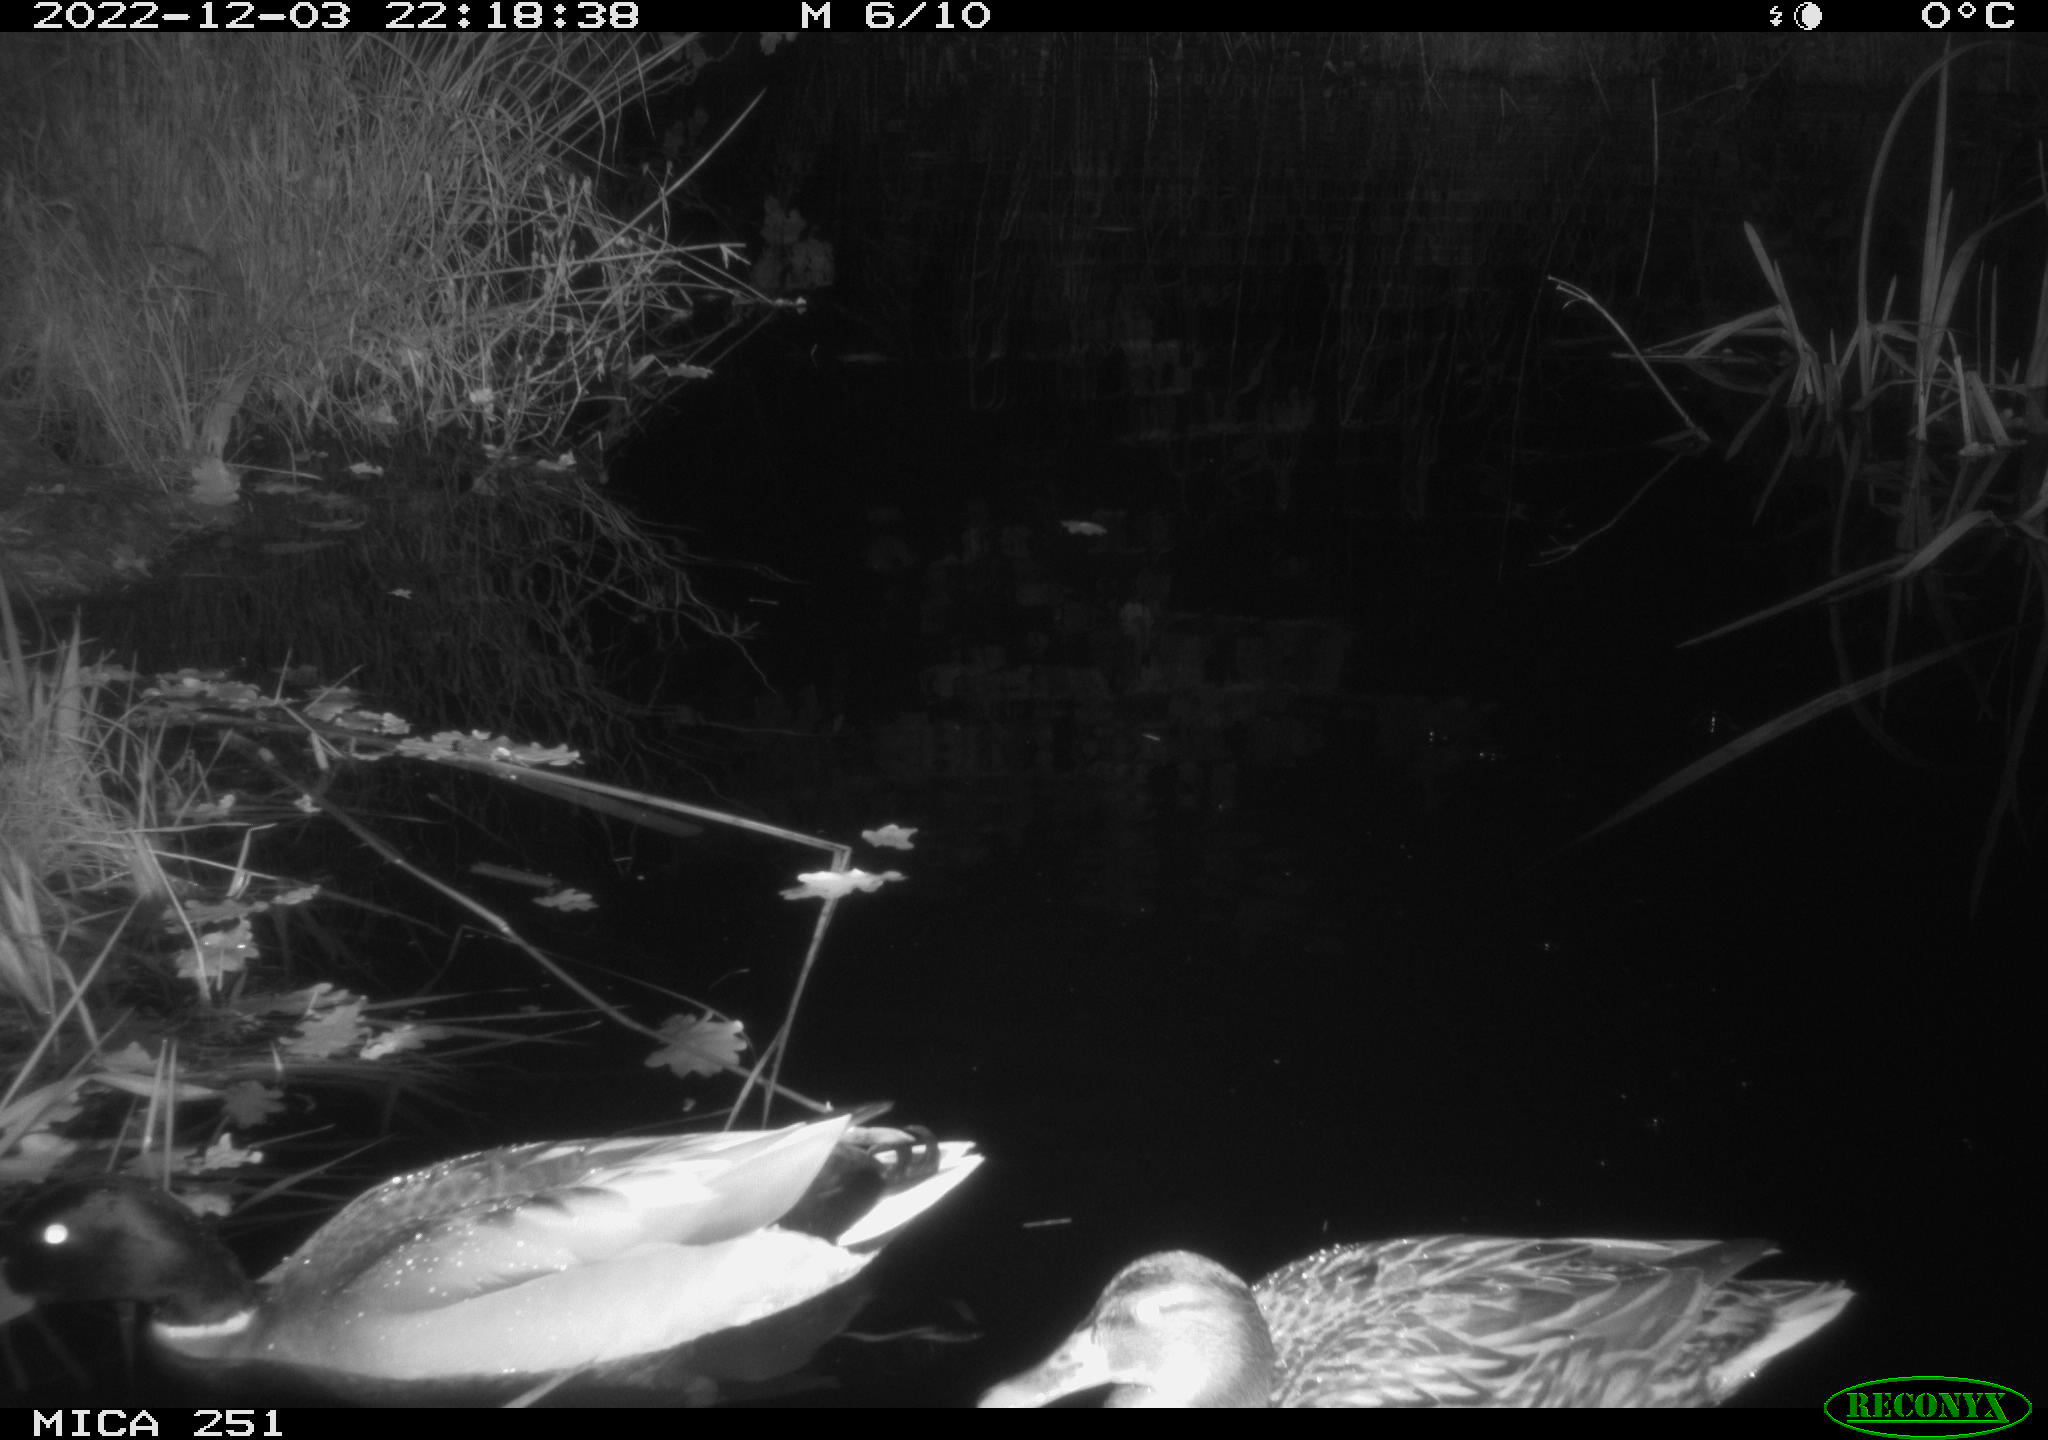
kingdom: Animalia
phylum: Chordata
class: Aves
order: Anseriformes
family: Anatidae
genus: Anas
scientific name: Anas
